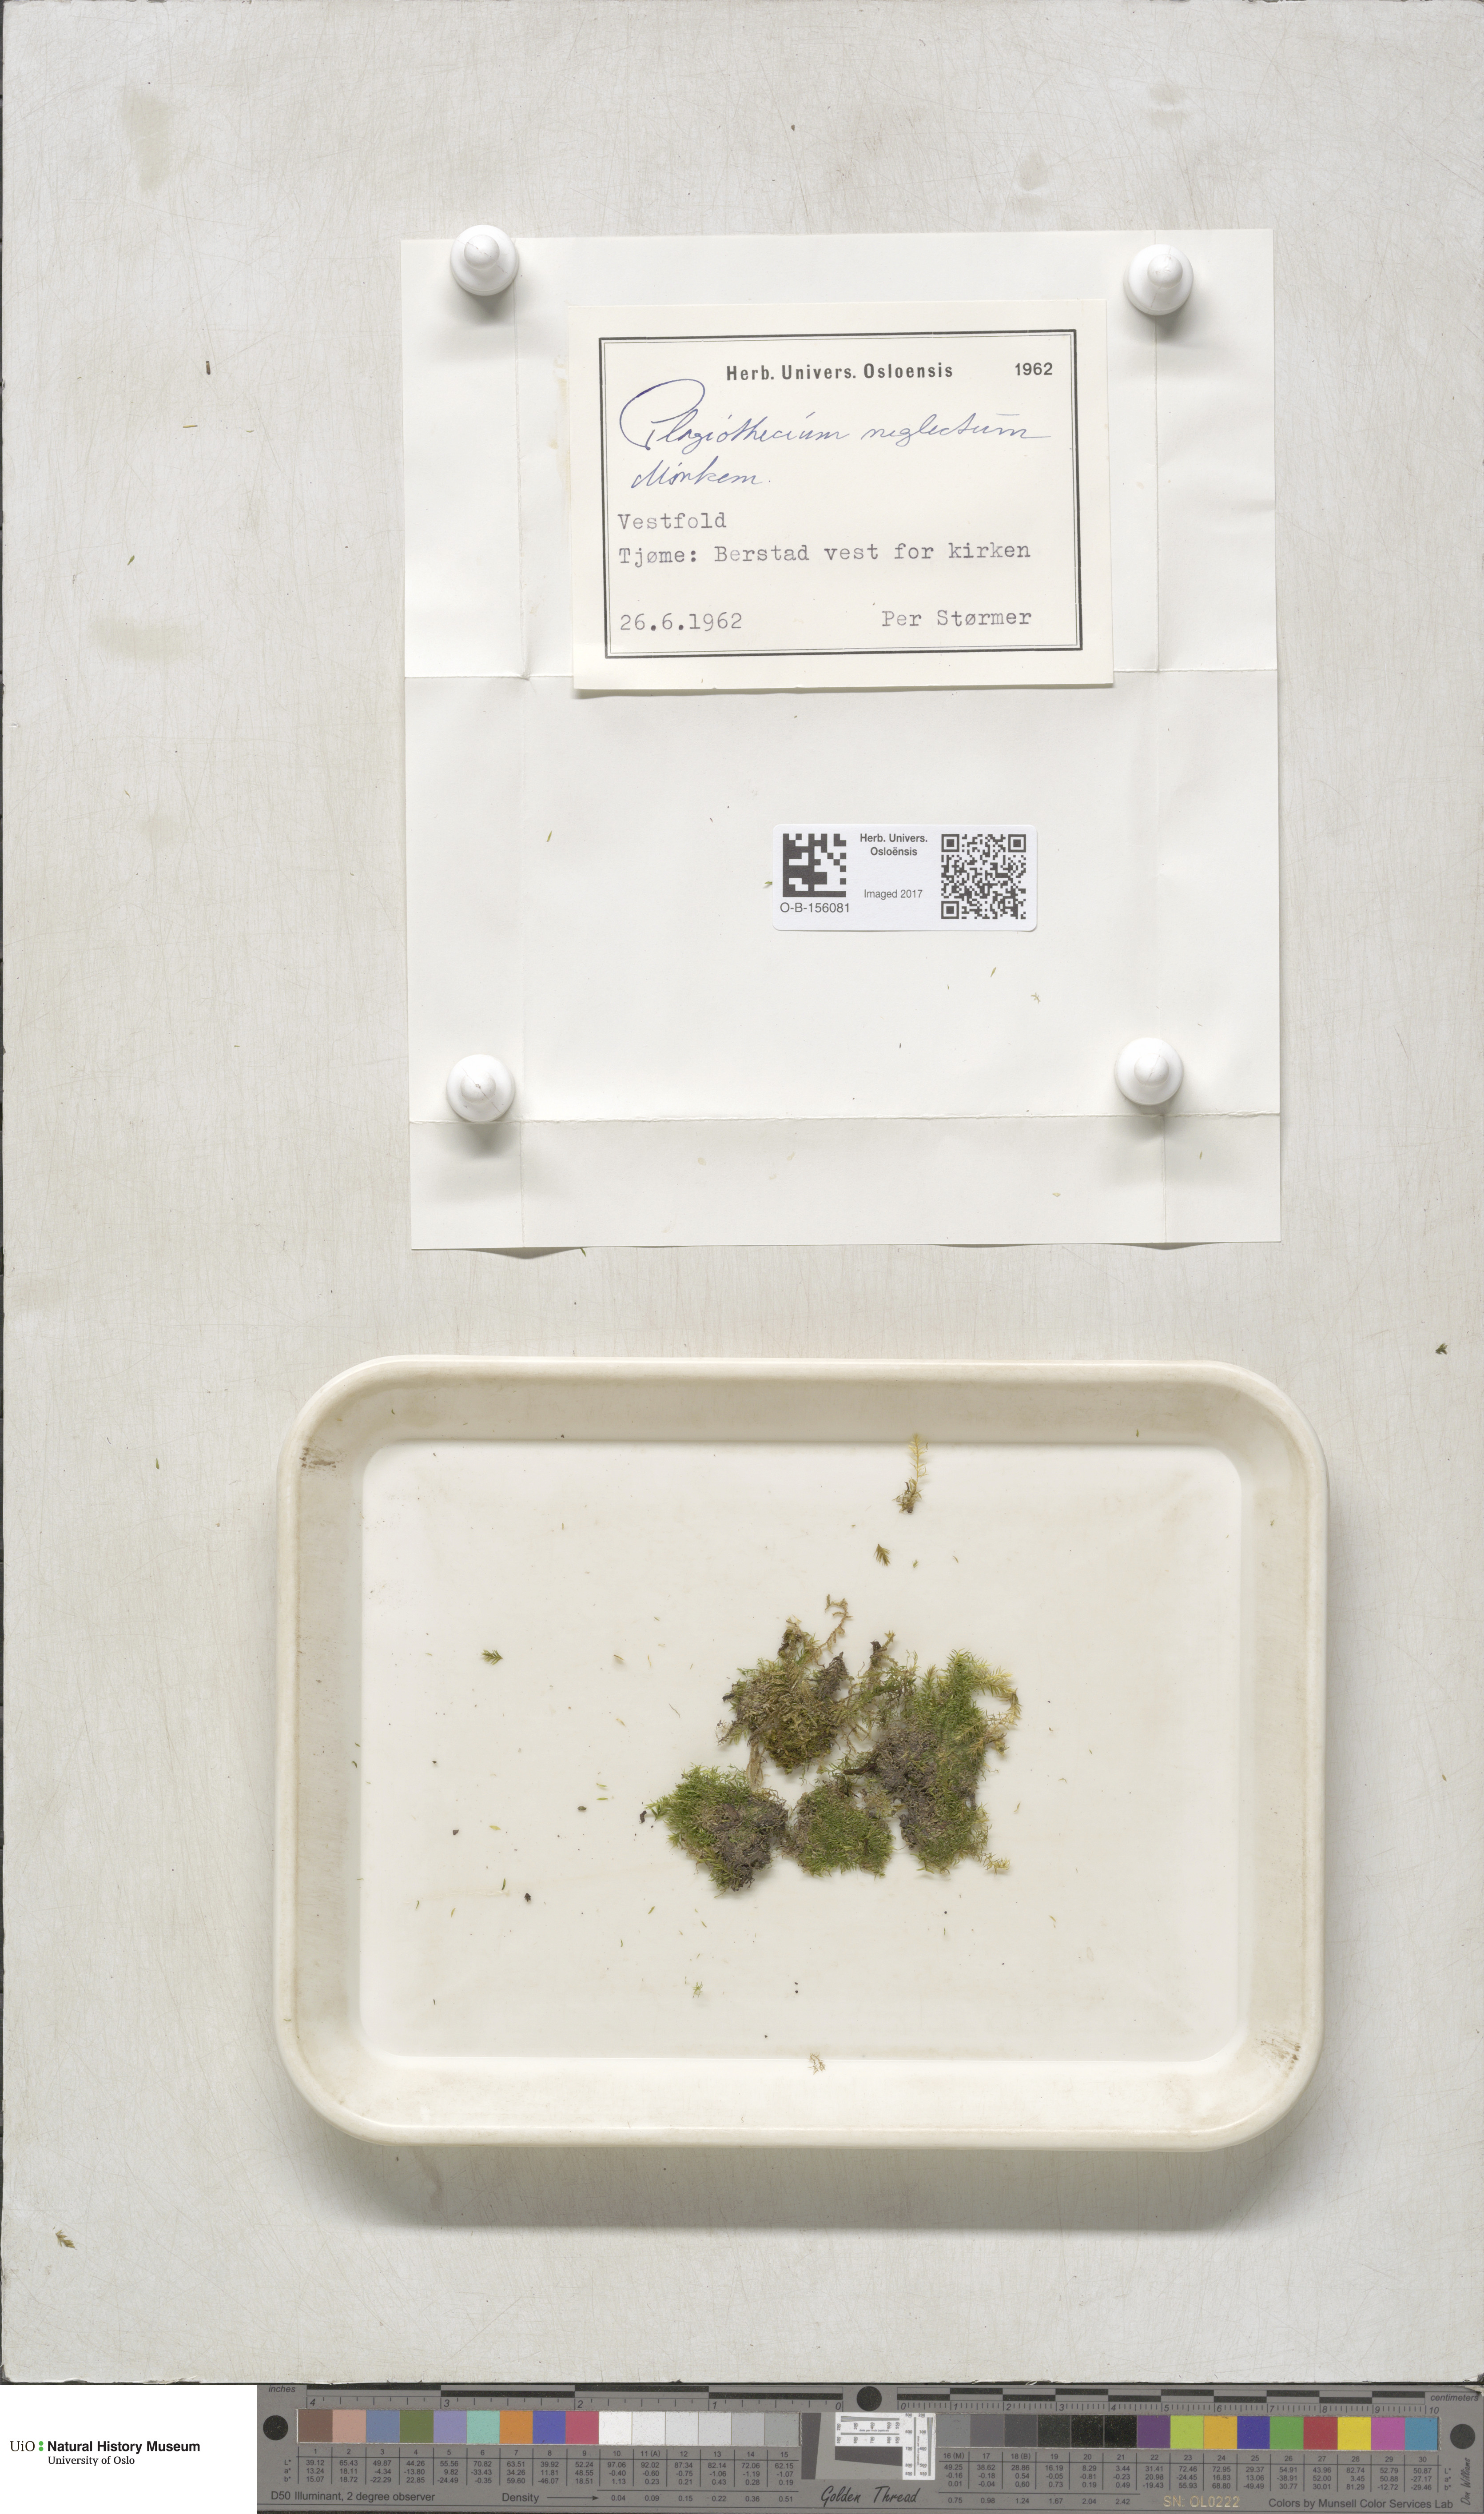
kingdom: Plantae
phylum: Bryophyta
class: Bryopsida
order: Hypnales
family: Plagiotheciaceae
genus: Plagiothecium
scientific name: Plagiothecium nemorale
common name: Woodsy silk-moss
